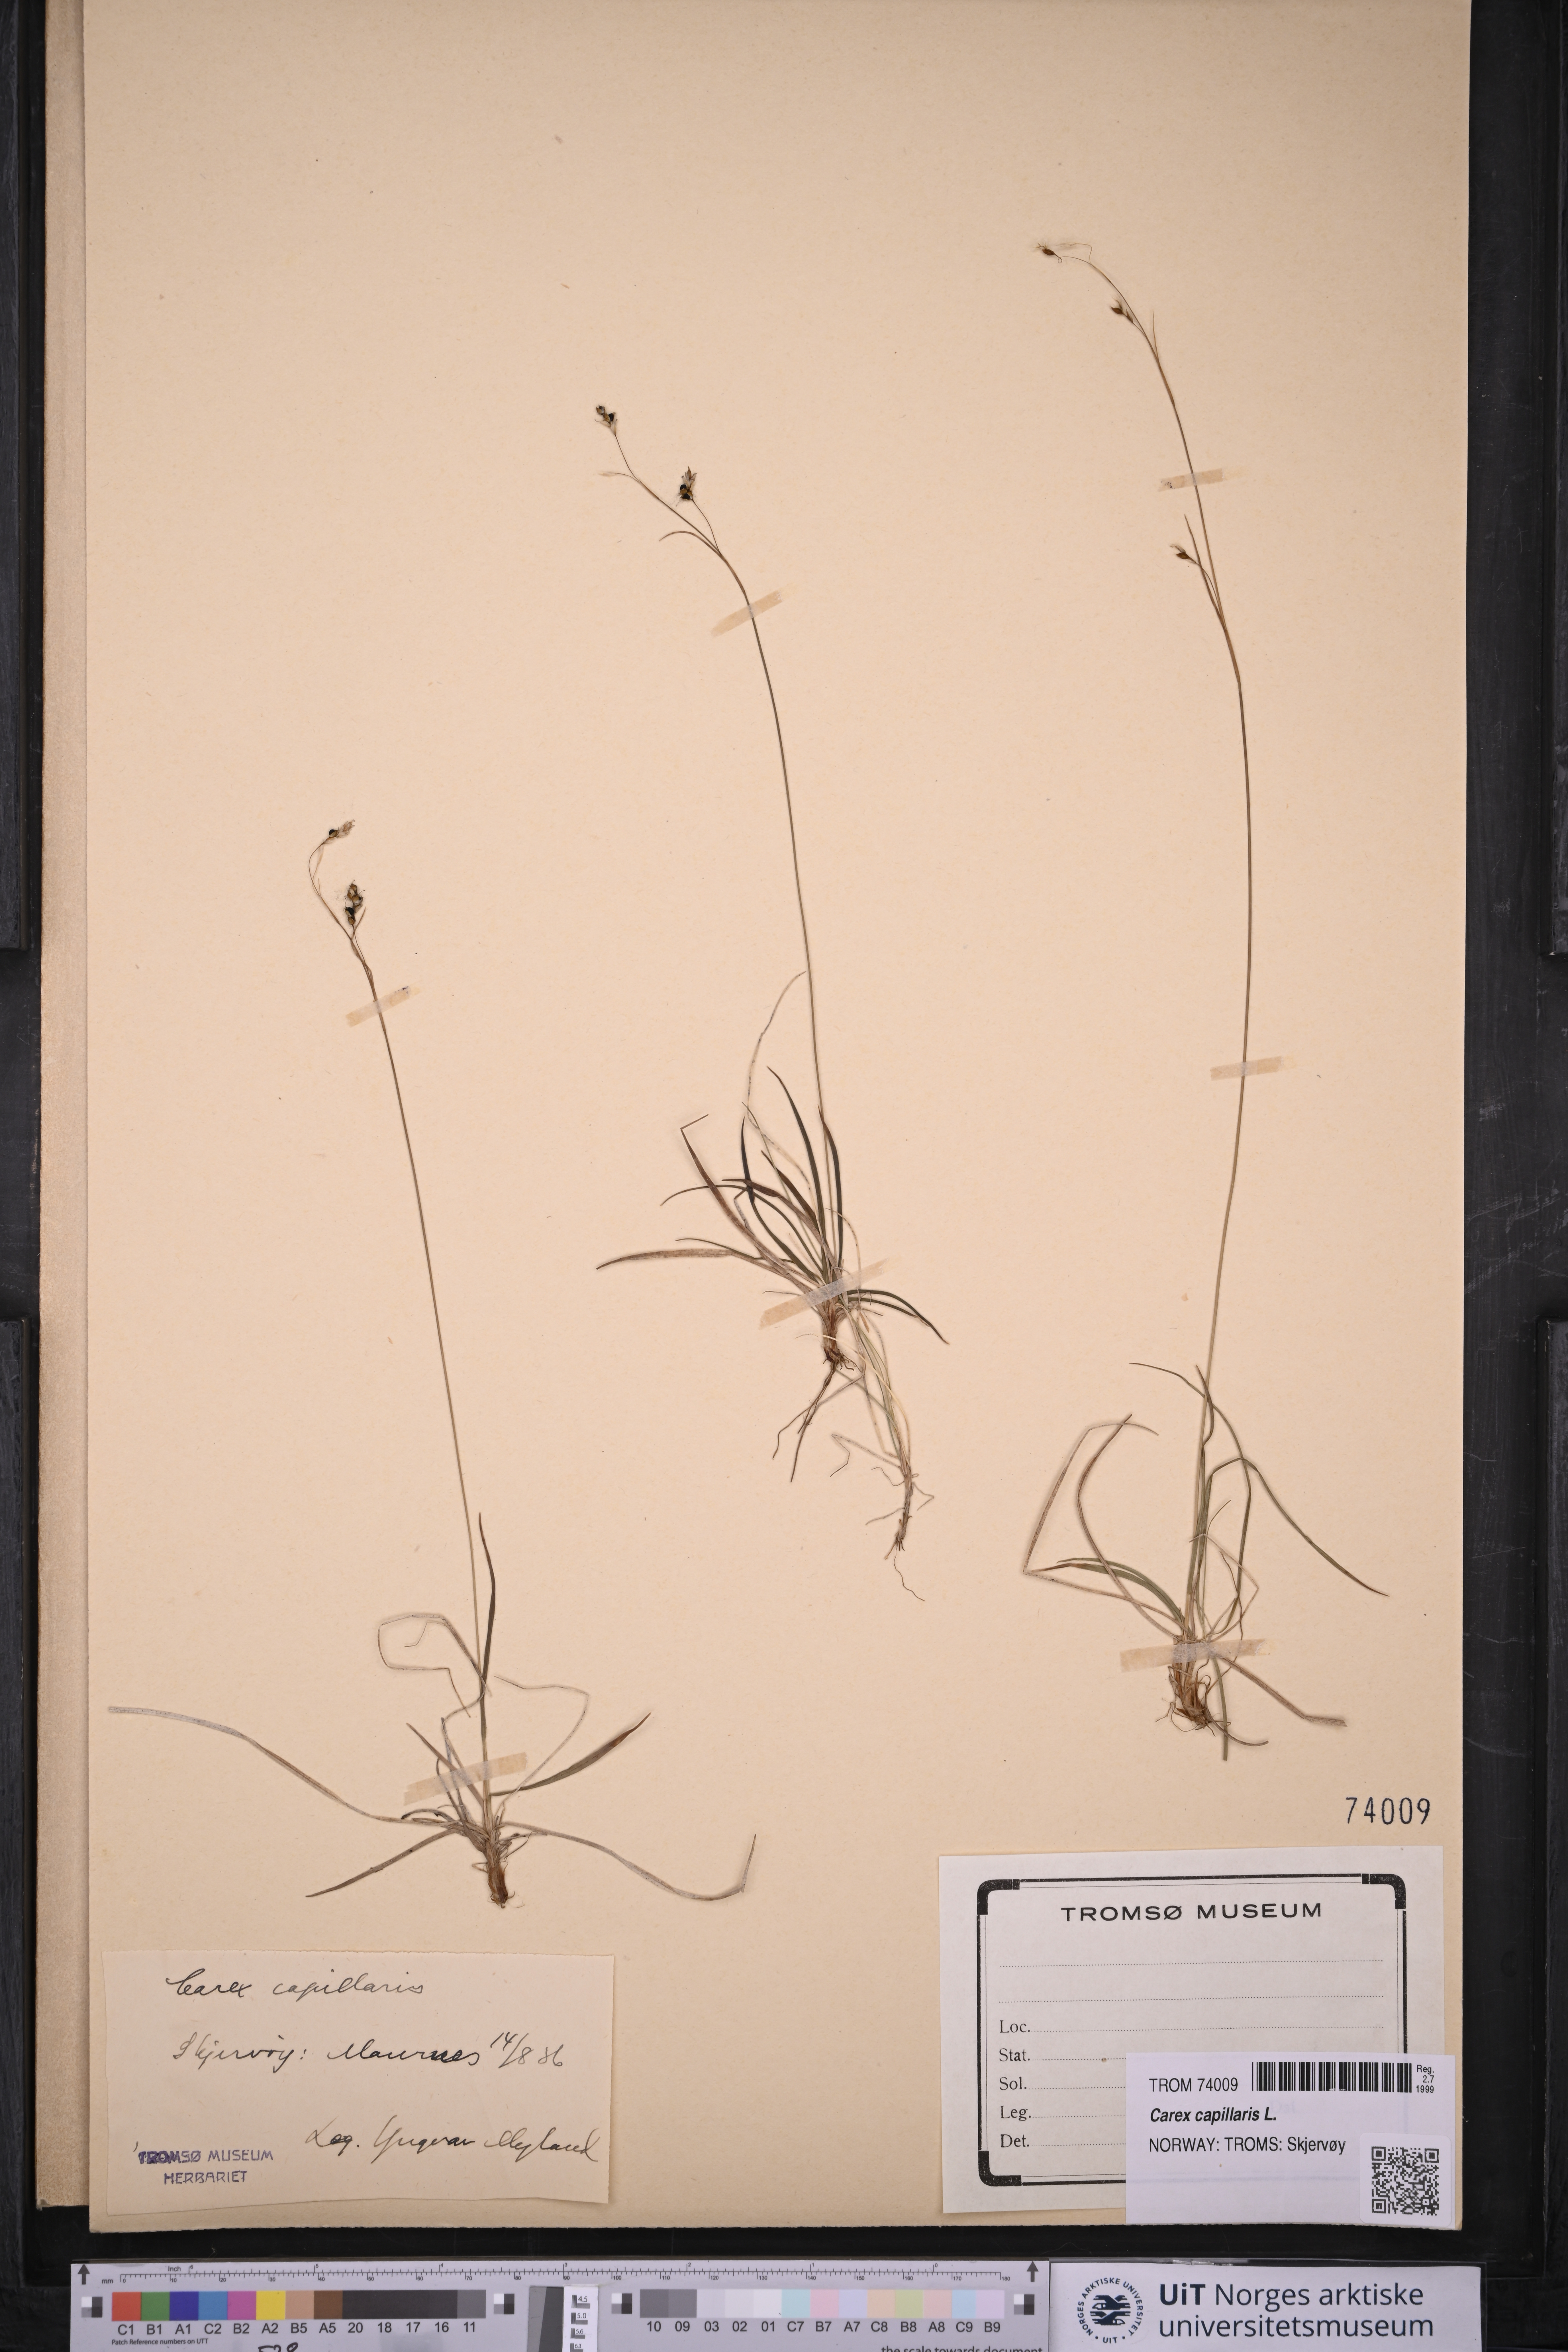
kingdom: Plantae
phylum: Tracheophyta
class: Liliopsida
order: Poales
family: Cyperaceae
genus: Carex
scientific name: Carex capillaris
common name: Hair sedge
